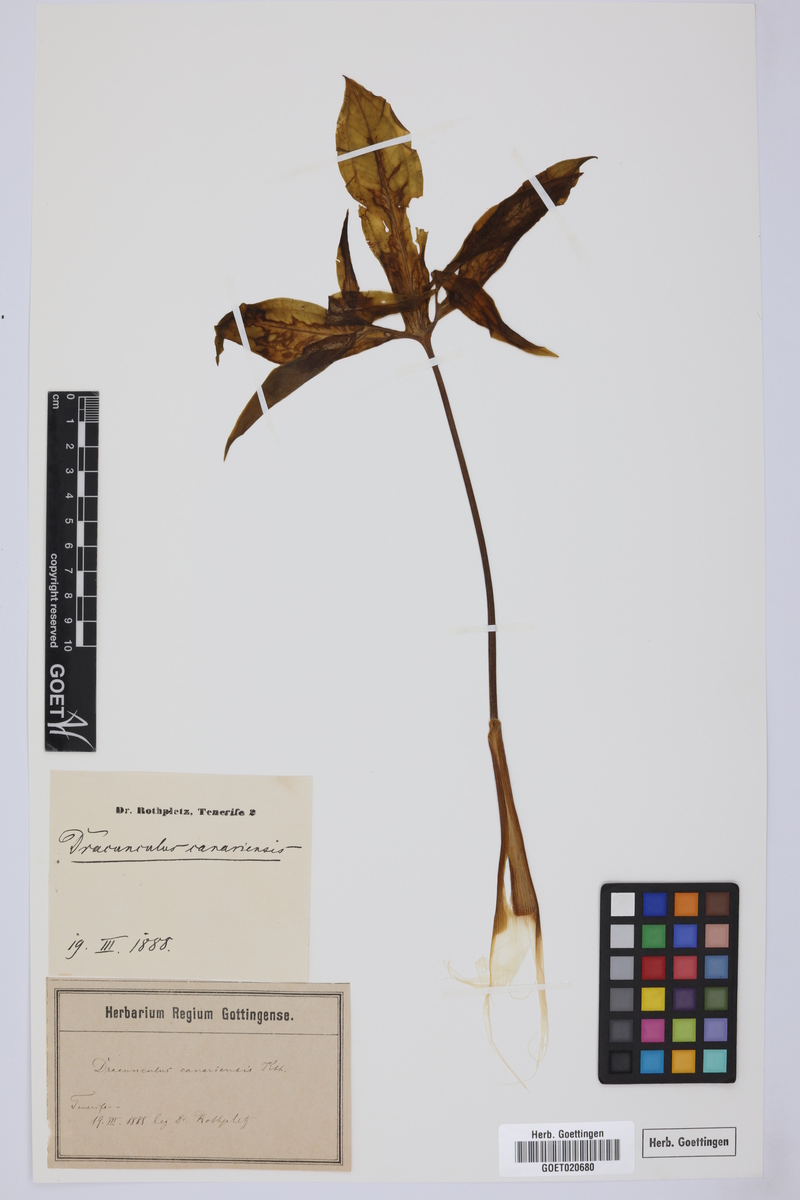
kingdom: Plantae
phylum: Tracheophyta
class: Liliopsida
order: Alismatales
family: Araceae
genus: Dracunculus
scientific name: Dracunculus canariensis
